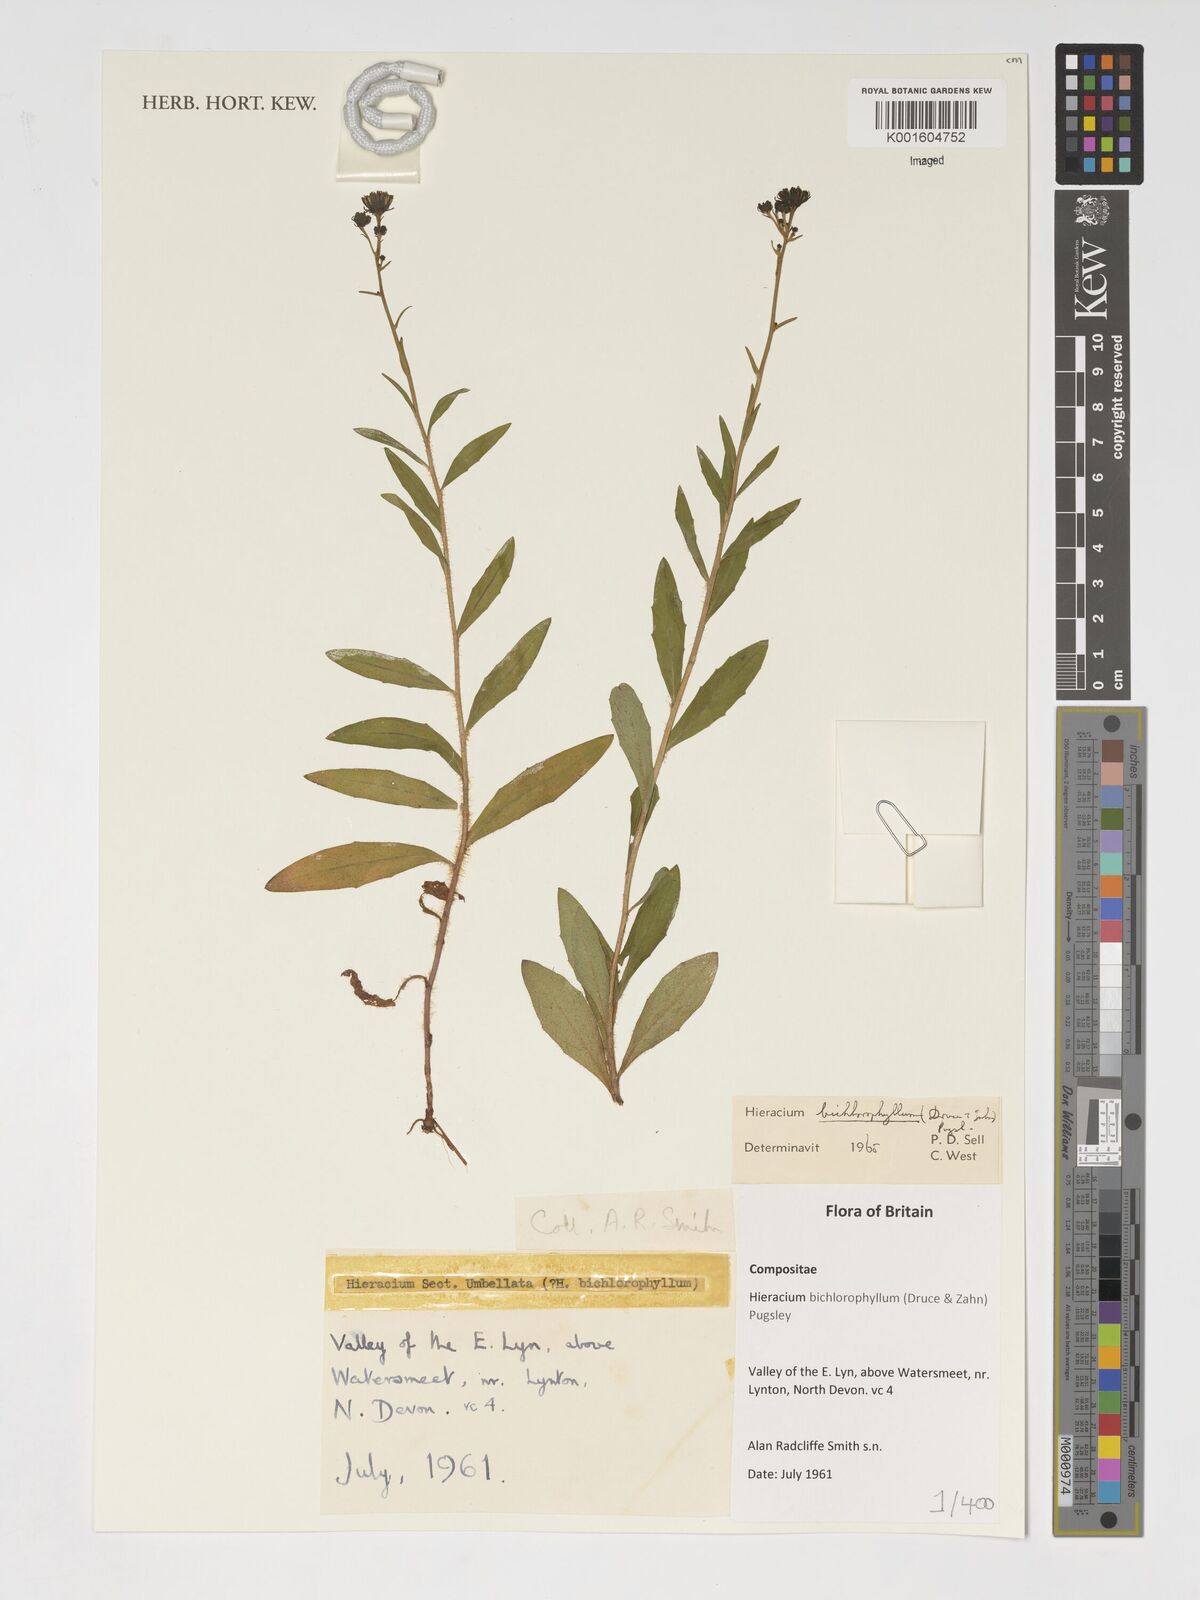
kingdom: Plantae
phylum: Tracheophyta
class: Magnoliopsida
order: Asterales
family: Asteraceae
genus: Hieracium
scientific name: Hieracium umbellatum
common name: Northern hawkweed
